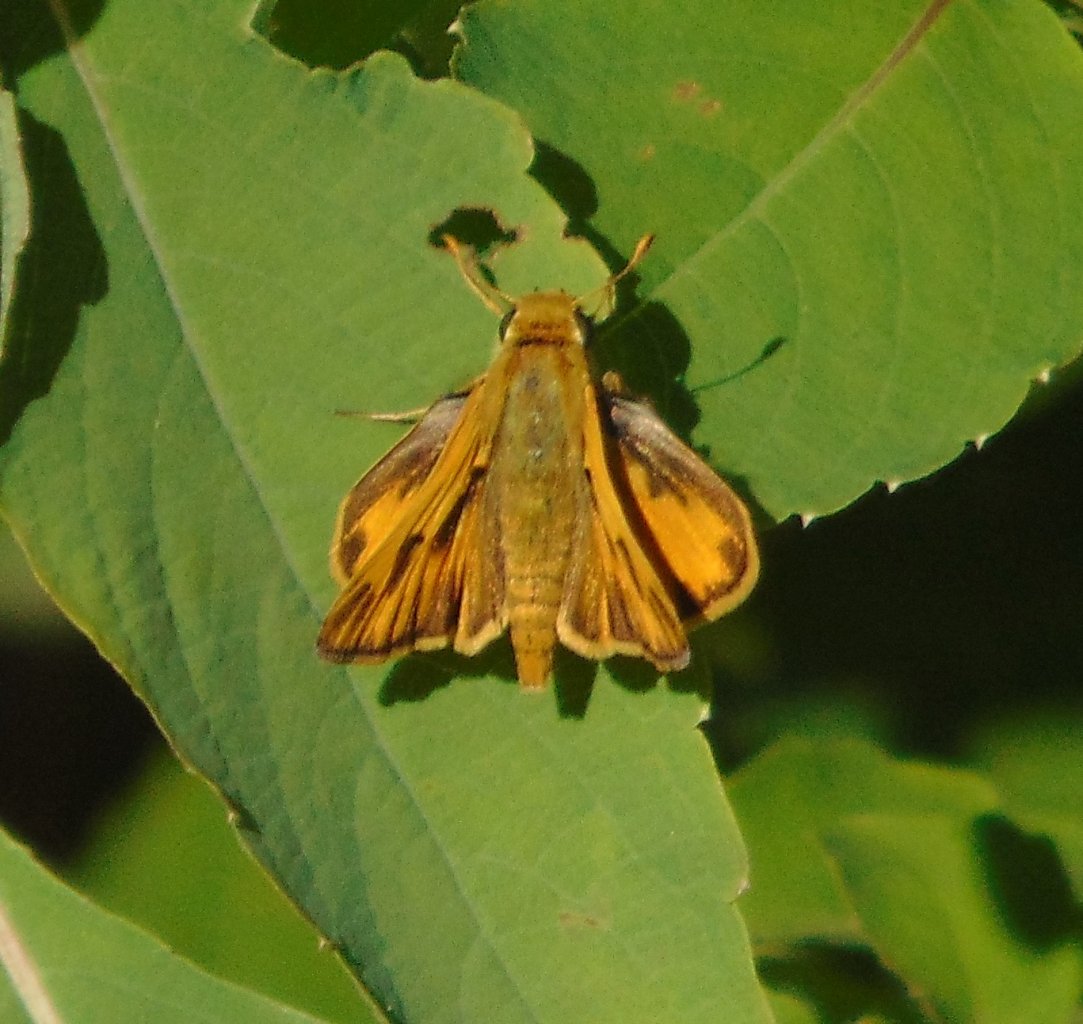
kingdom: Animalia
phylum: Arthropoda
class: Insecta
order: Lepidoptera
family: Hesperiidae
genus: Hylephila
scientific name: Hylephila phyleus
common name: Fiery Skipper
